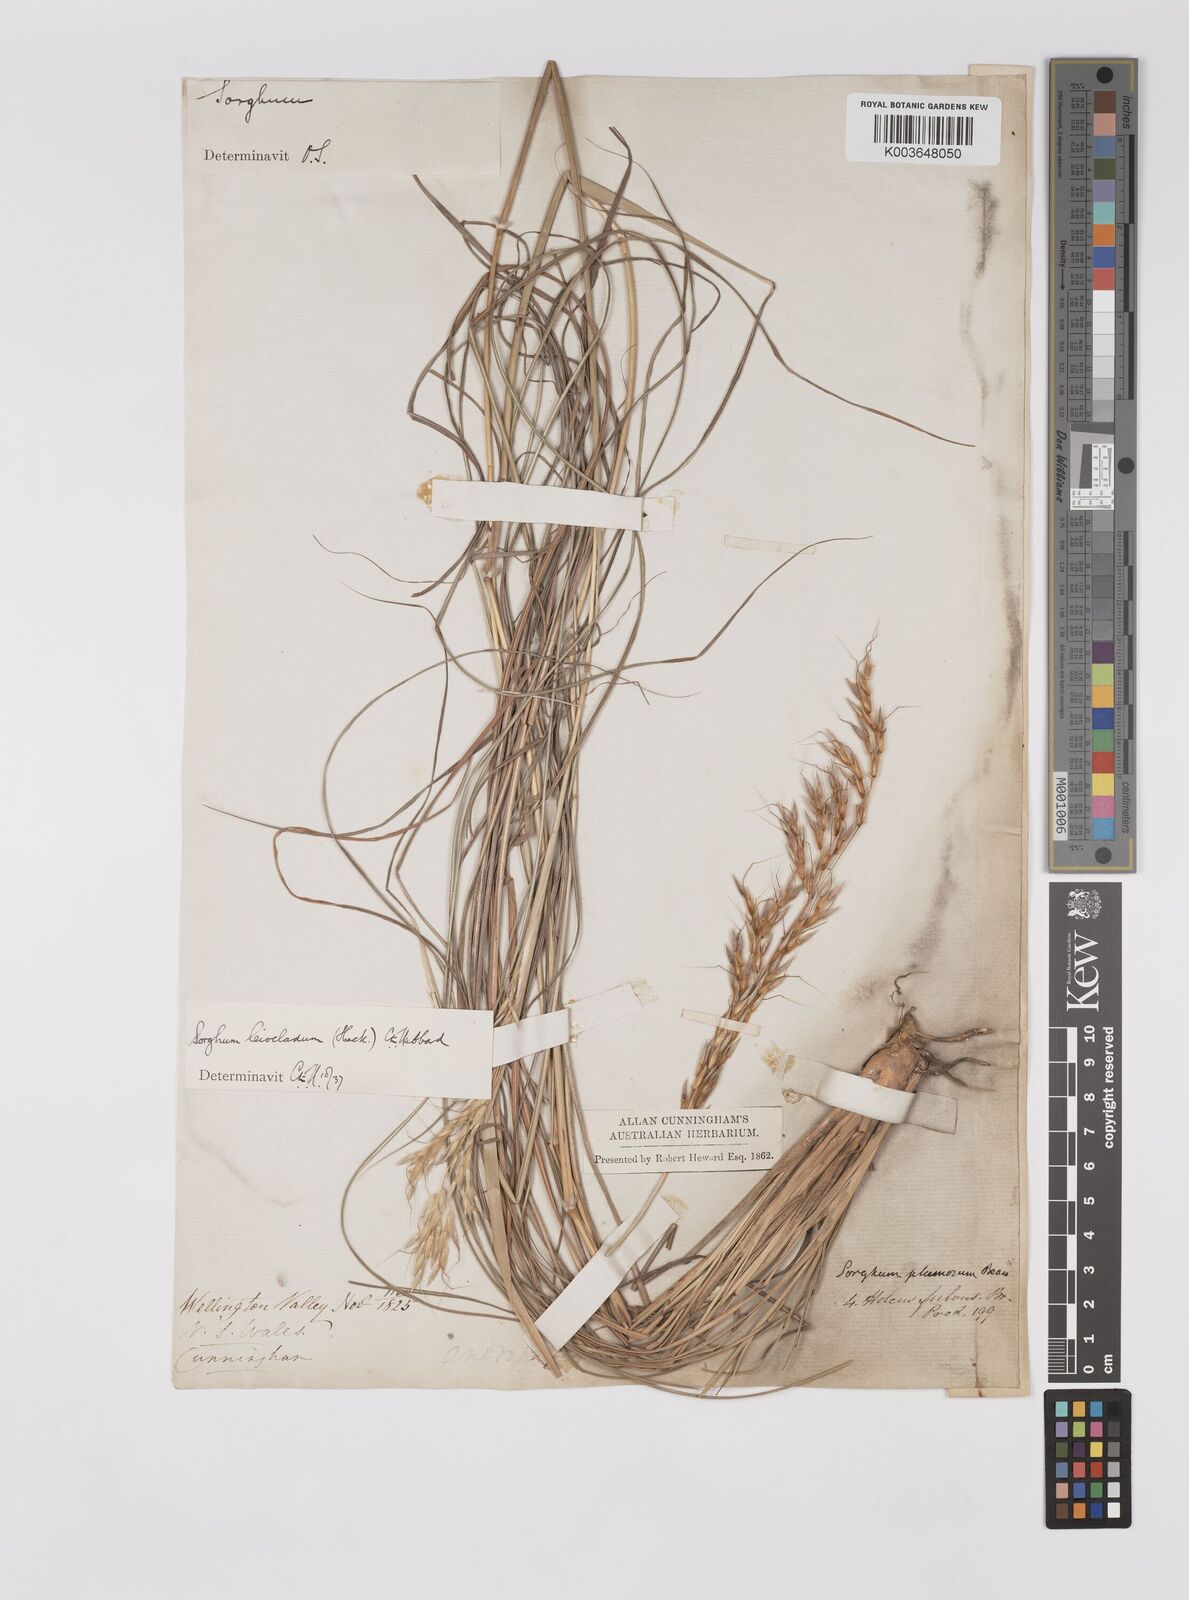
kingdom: Plantae
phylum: Tracheophyta
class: Liliopsida
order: Poales
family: Poaceae
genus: Sarga
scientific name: Sarga leioclada
